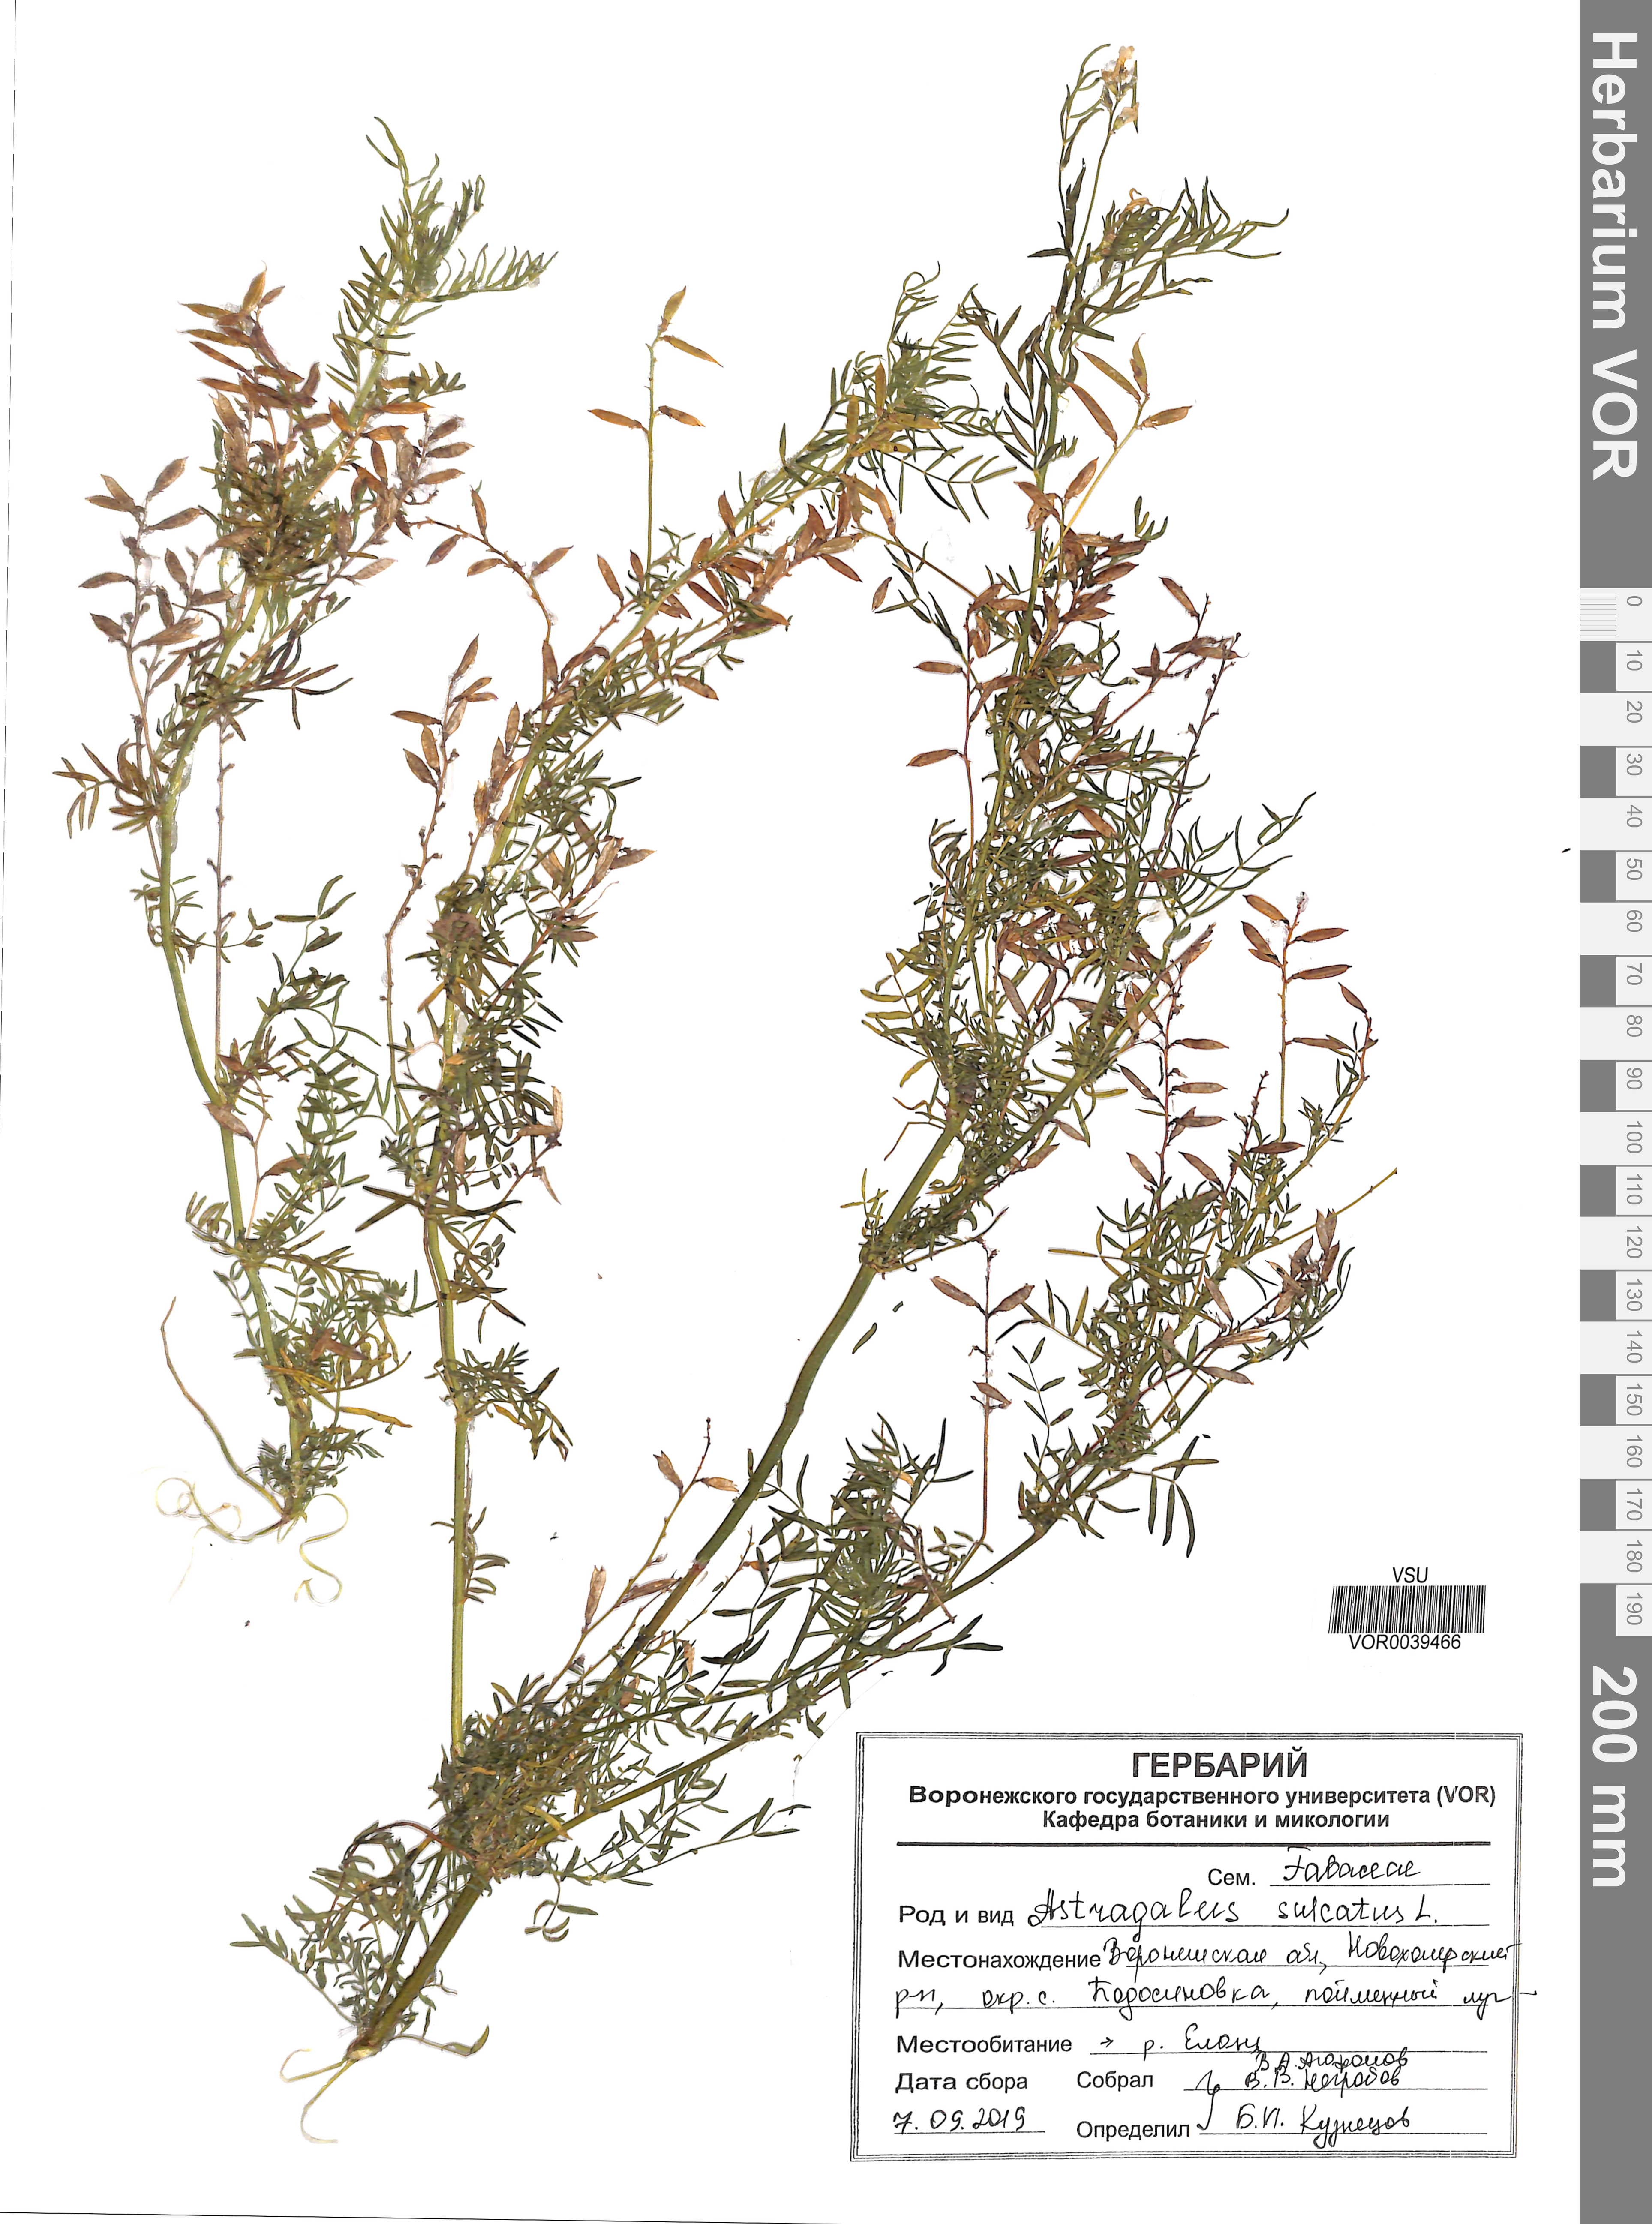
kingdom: Plantae
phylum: Tracheophyta
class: Magnoliopsida
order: Fabales
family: Fabaceae
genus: Astragalus
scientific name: Astragalus sulcatus
